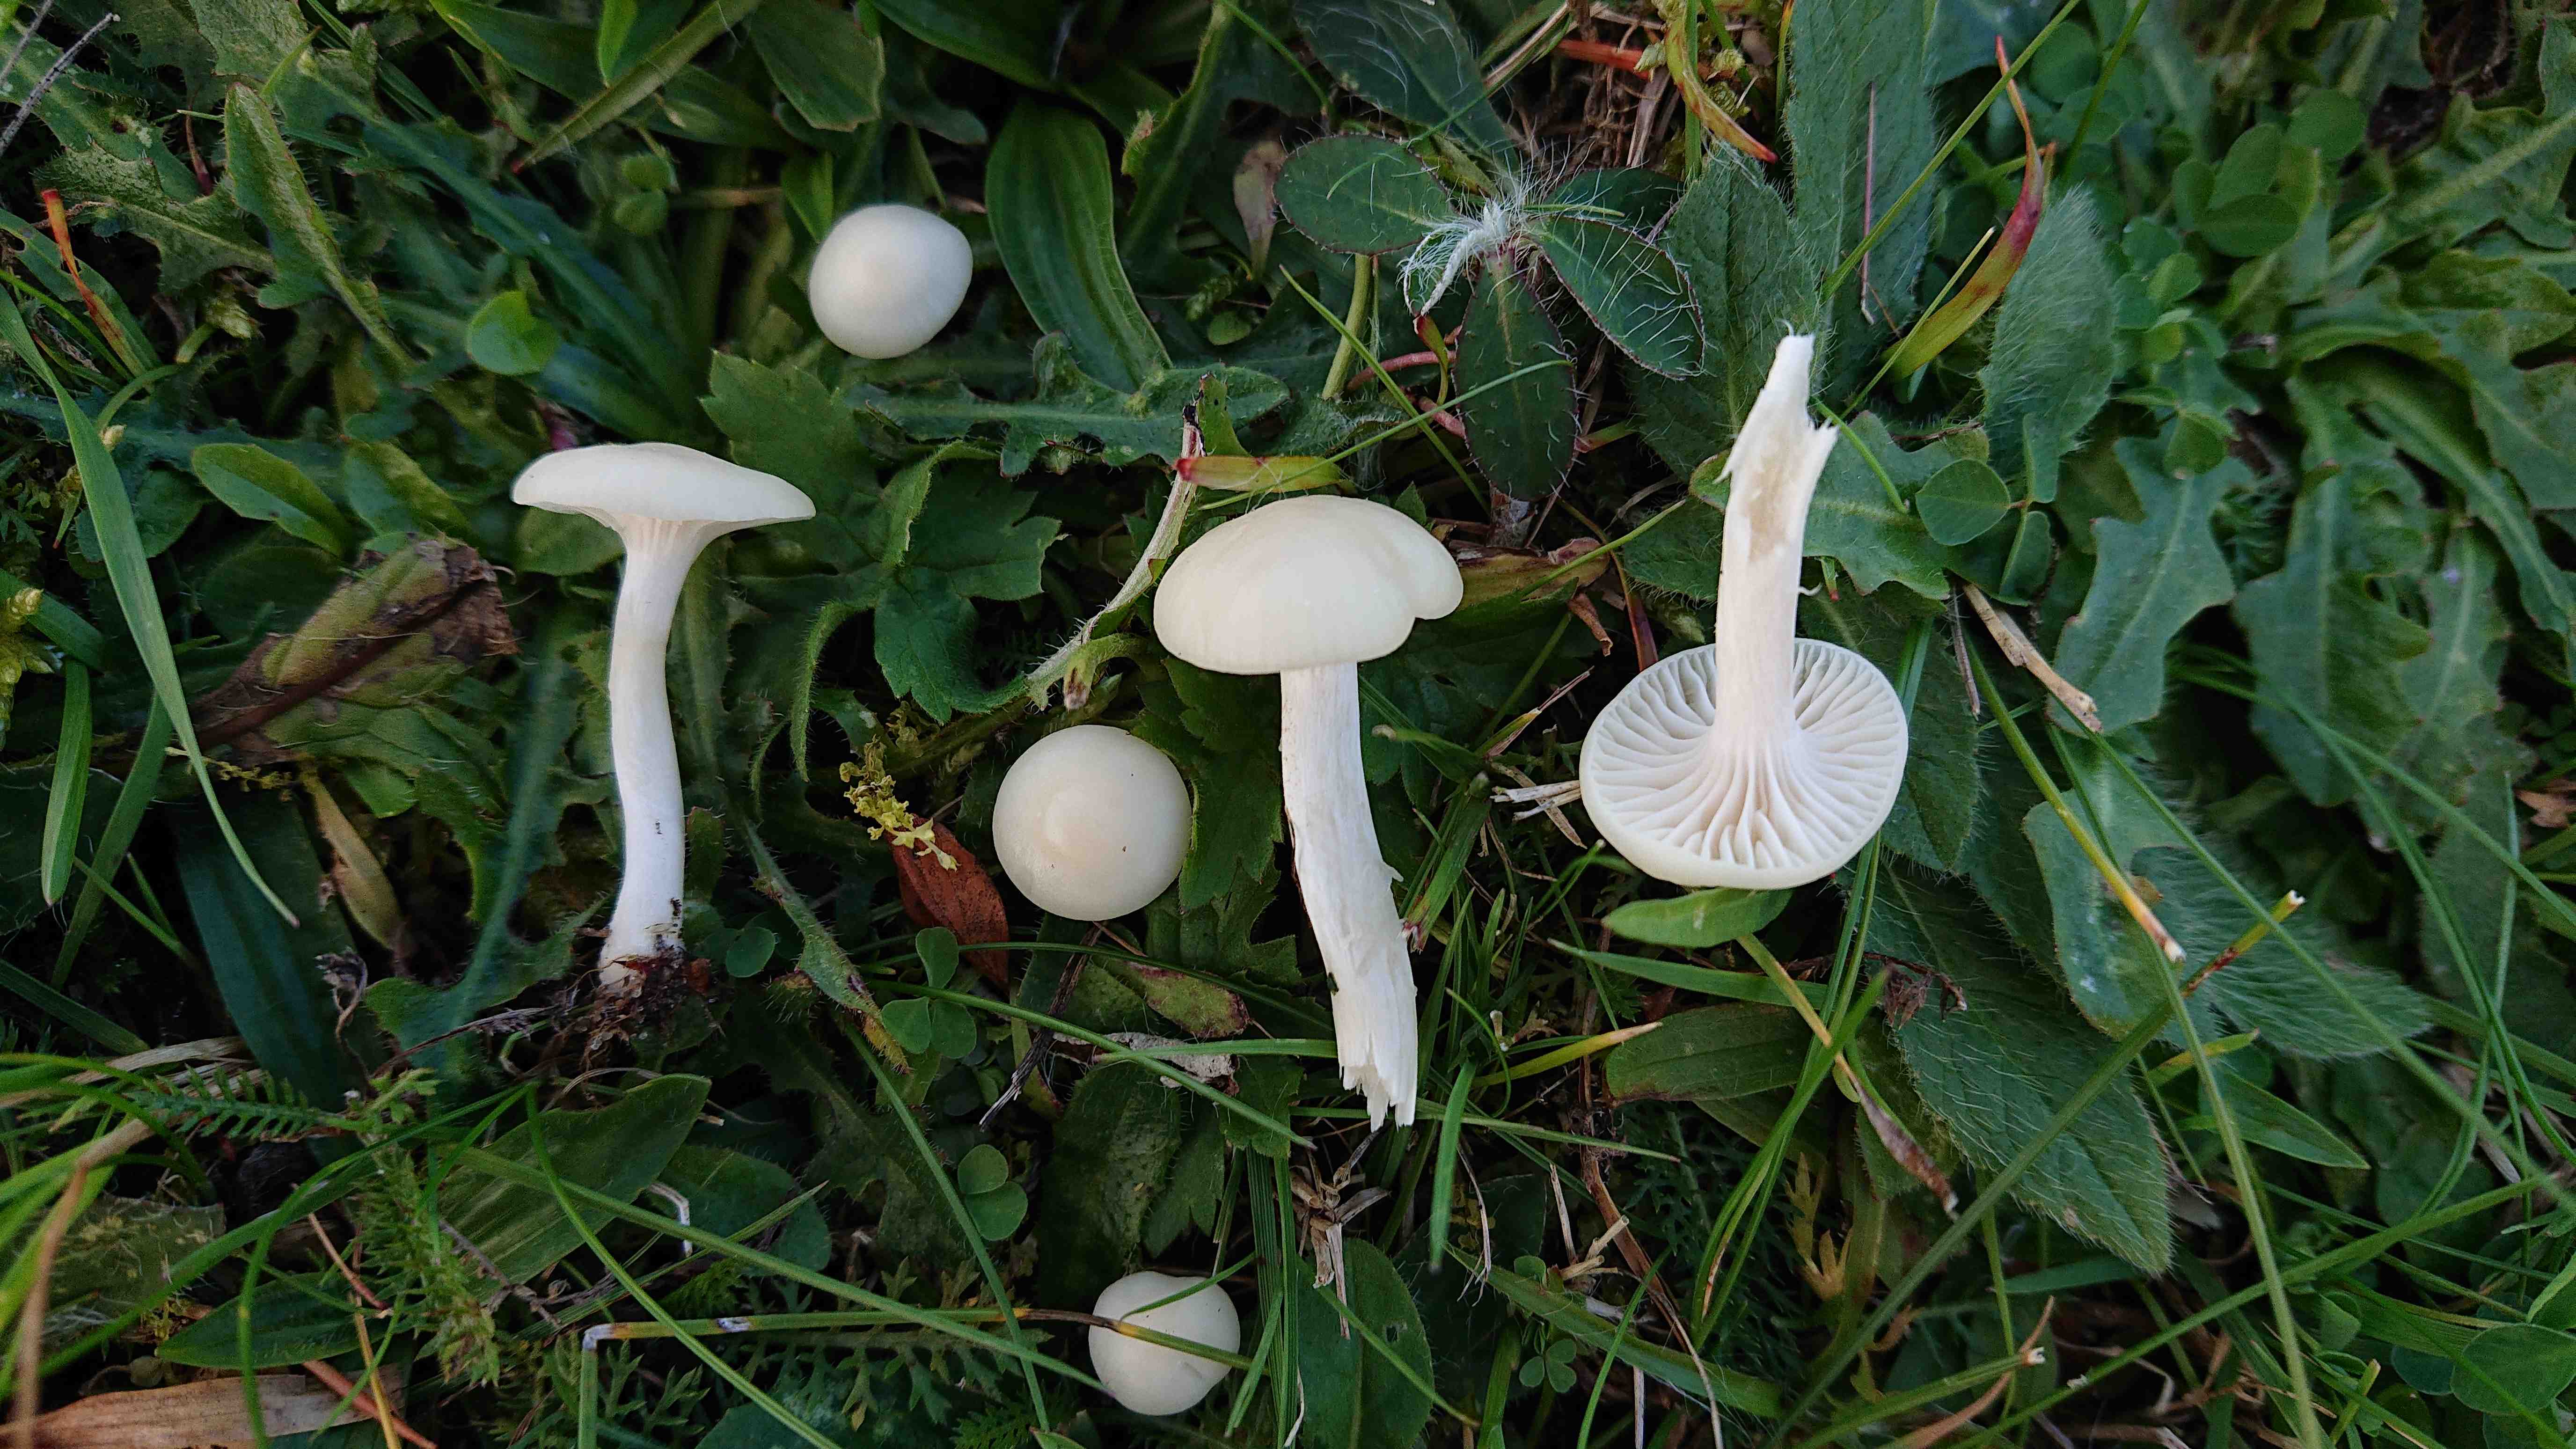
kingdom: Fungi
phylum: Basidiomycota
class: Agaricomycetes
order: Agaricales
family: Hygrophoraceae
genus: Cuphophyllus
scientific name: Cuphophyllus virgineus
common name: snehvid vokshat
